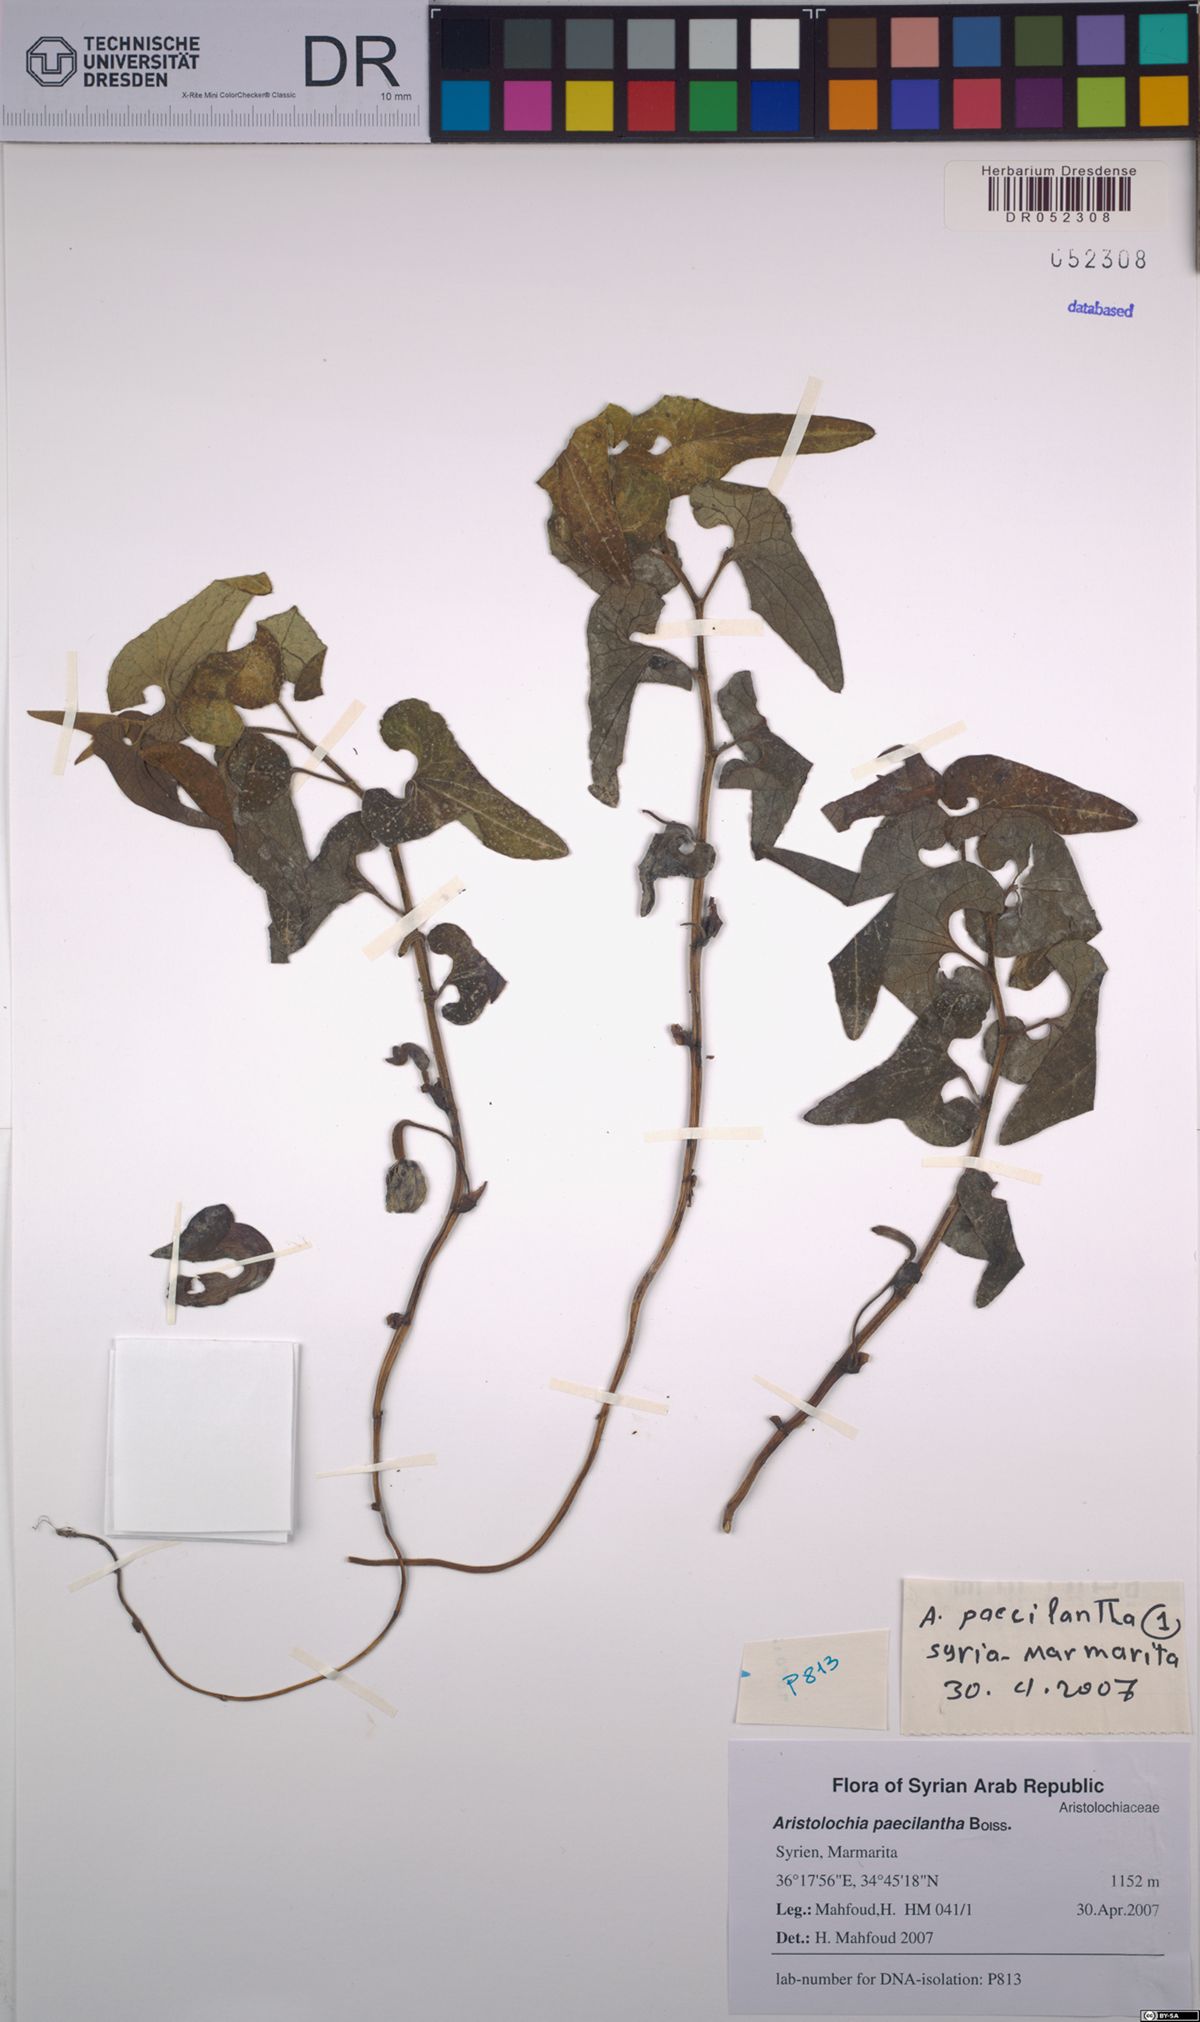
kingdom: Plantae
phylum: Tracheophyta
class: Magnoliopsida
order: Piperales
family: Aristolochiaceae
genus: Aristolochia
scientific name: Aristolochia paecilantha
